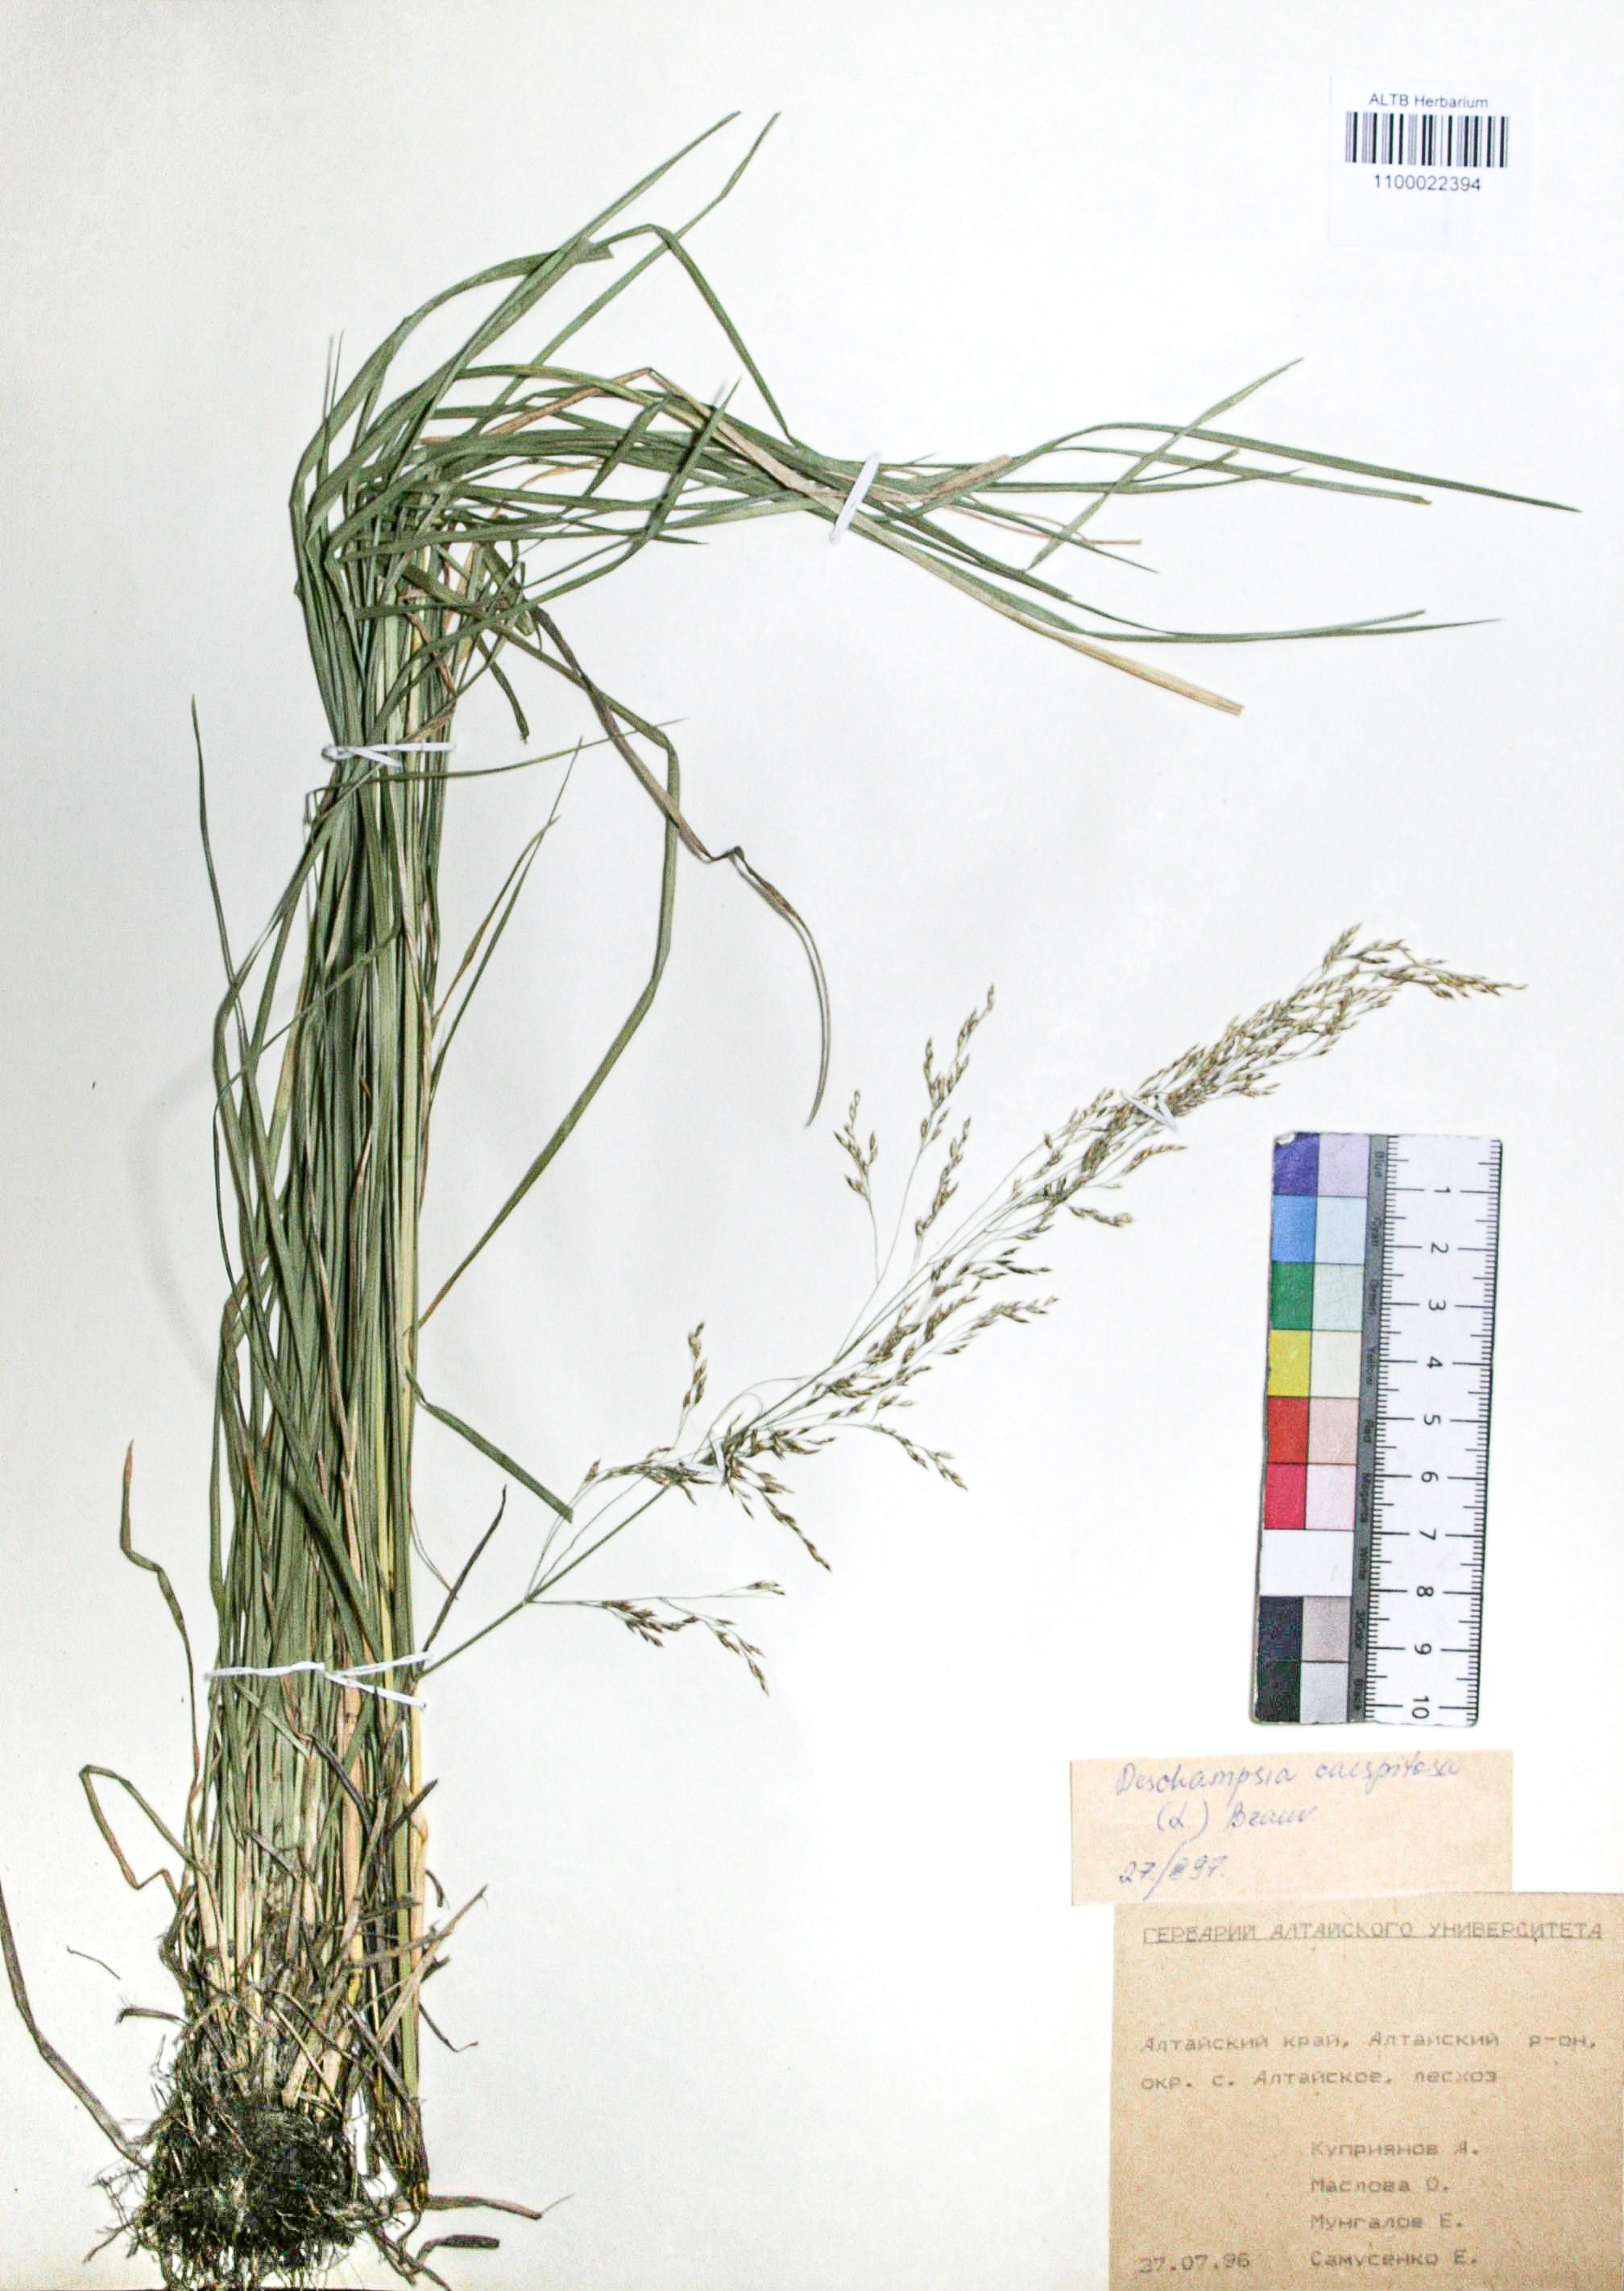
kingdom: Plantae
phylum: Tracheophyta
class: Liliopsida
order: Poales
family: Poaceae
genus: Deschampsia
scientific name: Deschampsia cespitosa
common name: Tufted hair-grass
